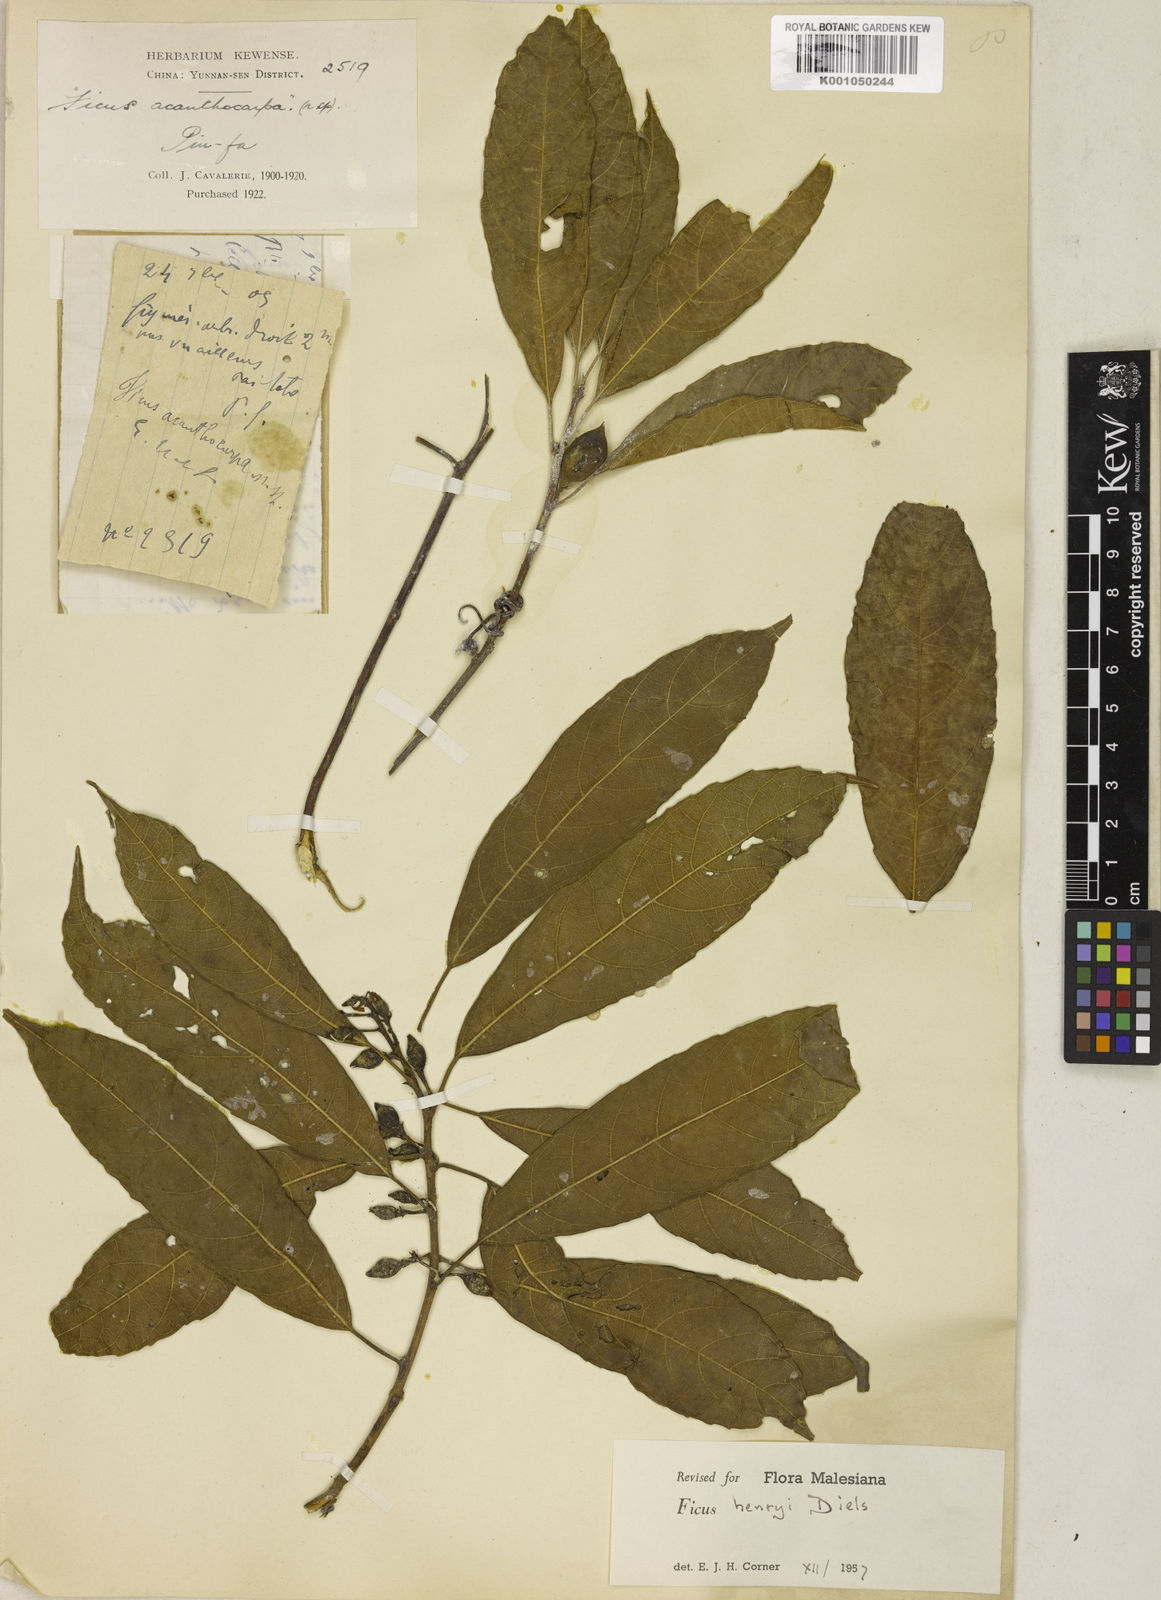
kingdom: Plantae
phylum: Tracheophyta
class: Magnoliopsida
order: Rosales
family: Moraceae
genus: Ficus
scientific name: Ficus
